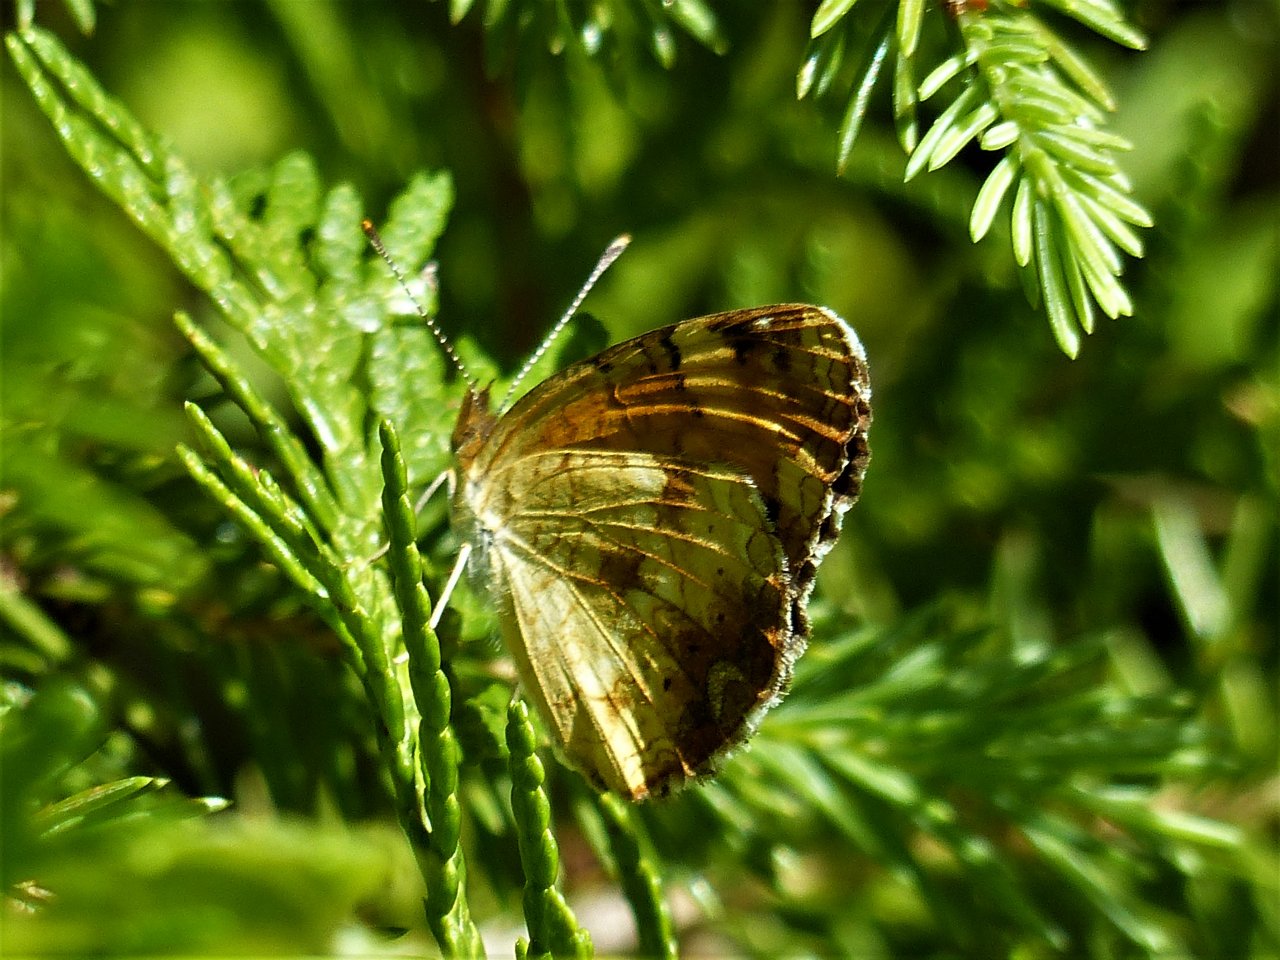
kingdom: Animalia
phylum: Arthropoda
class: Insecta
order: Lepidoptera
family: Nymphalidae
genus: Phyciodes
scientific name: Phyciodes tharos
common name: Northern Crescent
